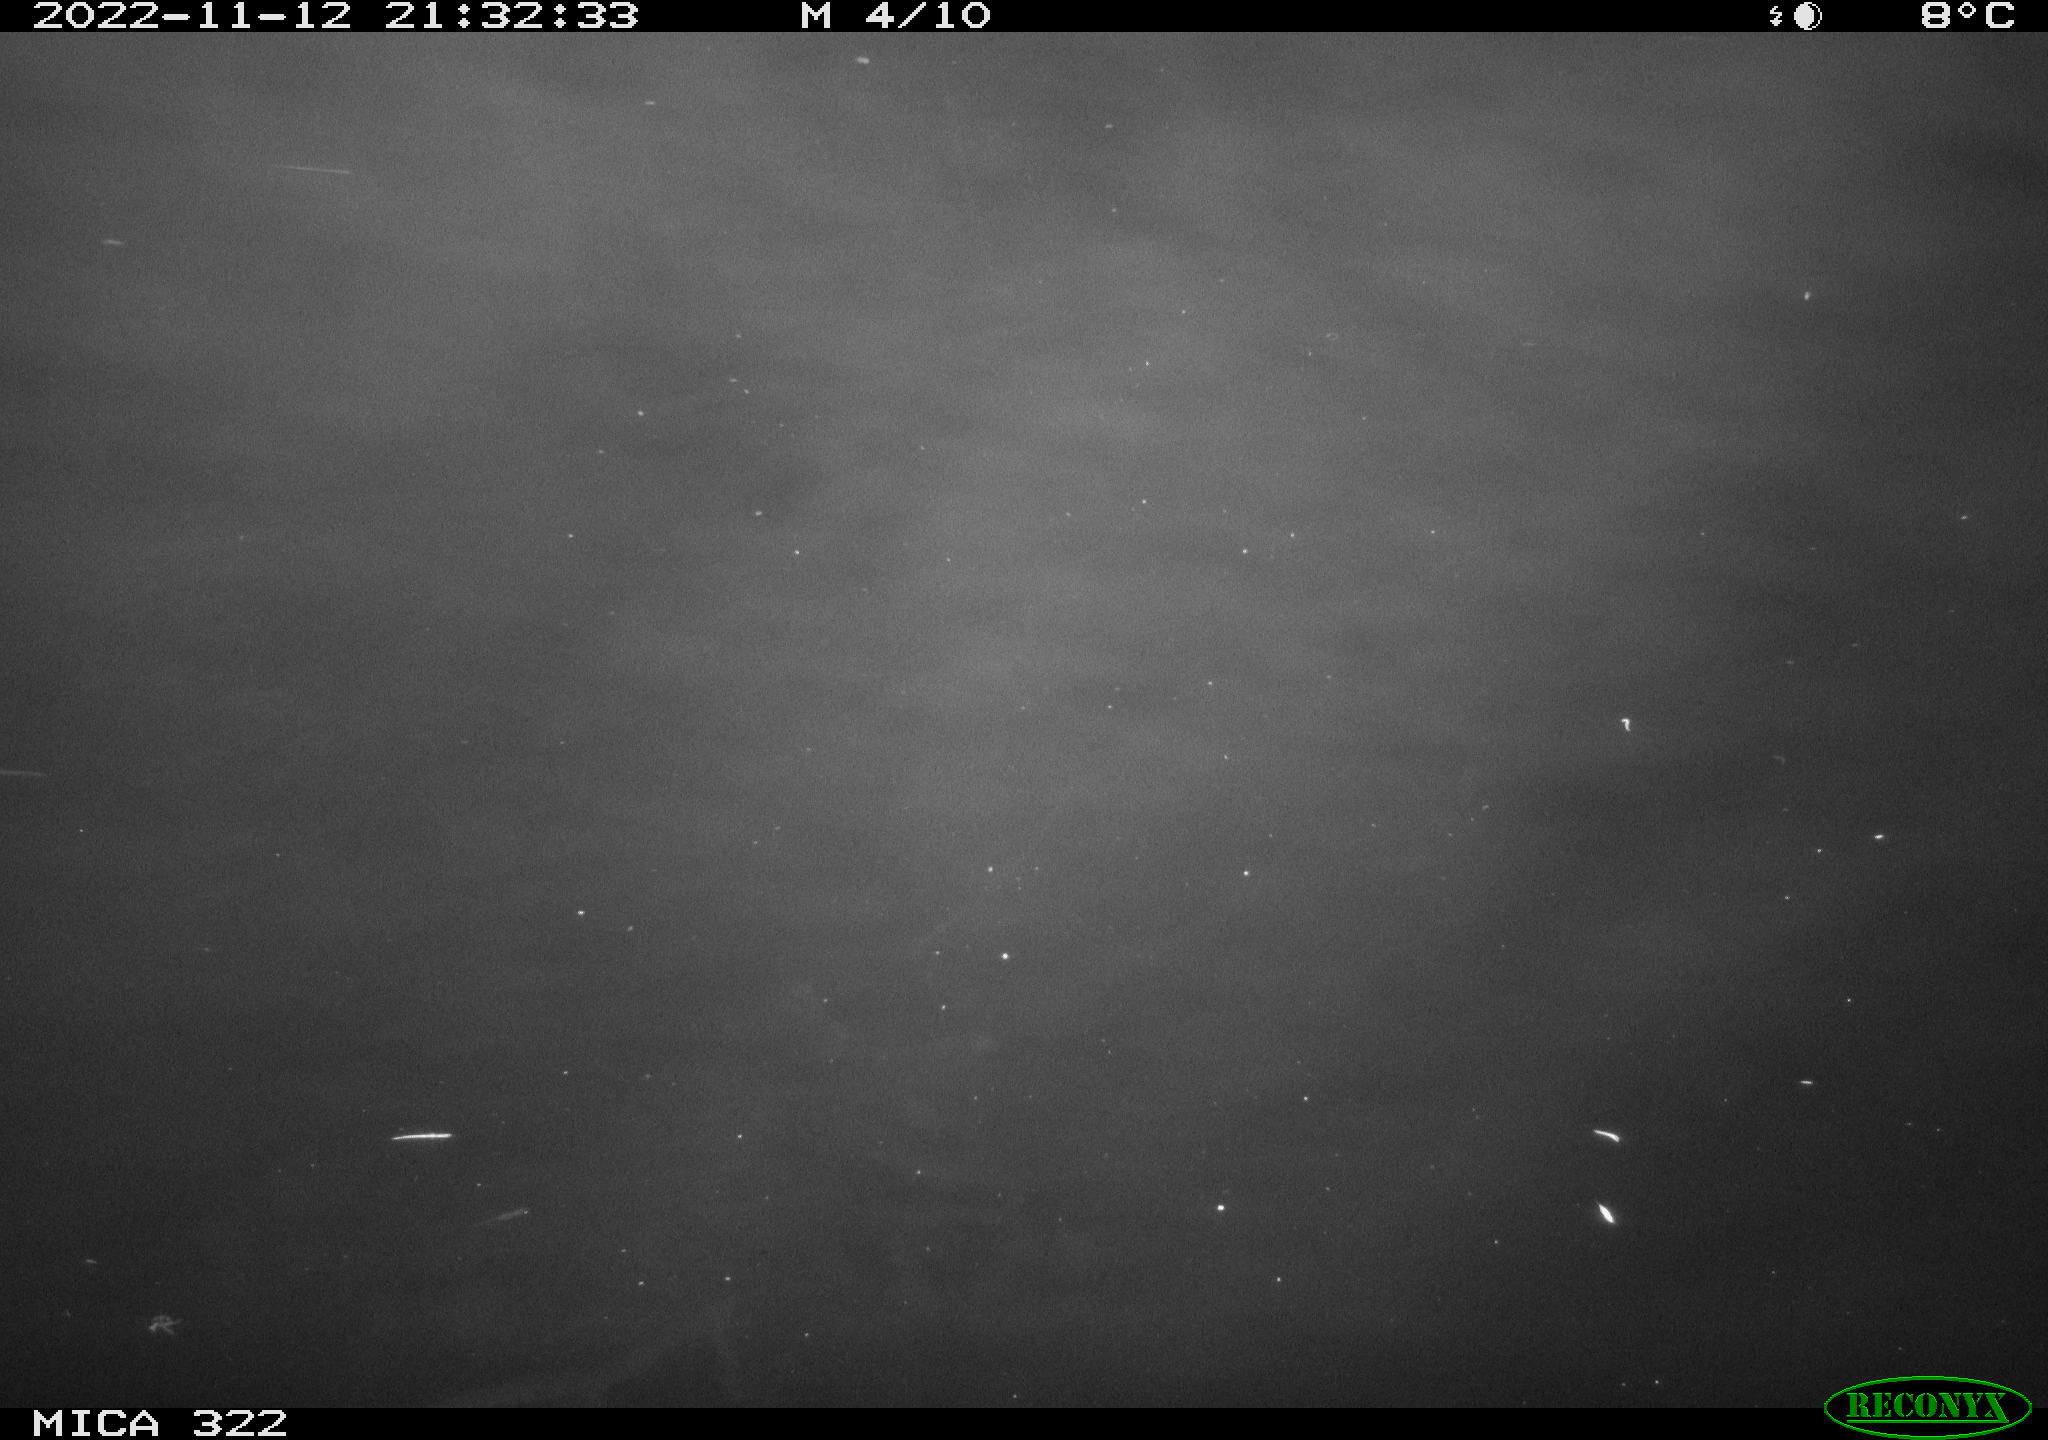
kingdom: Animalia
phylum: Chordata
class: Mammalia
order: Rodentia
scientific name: Rodentia
